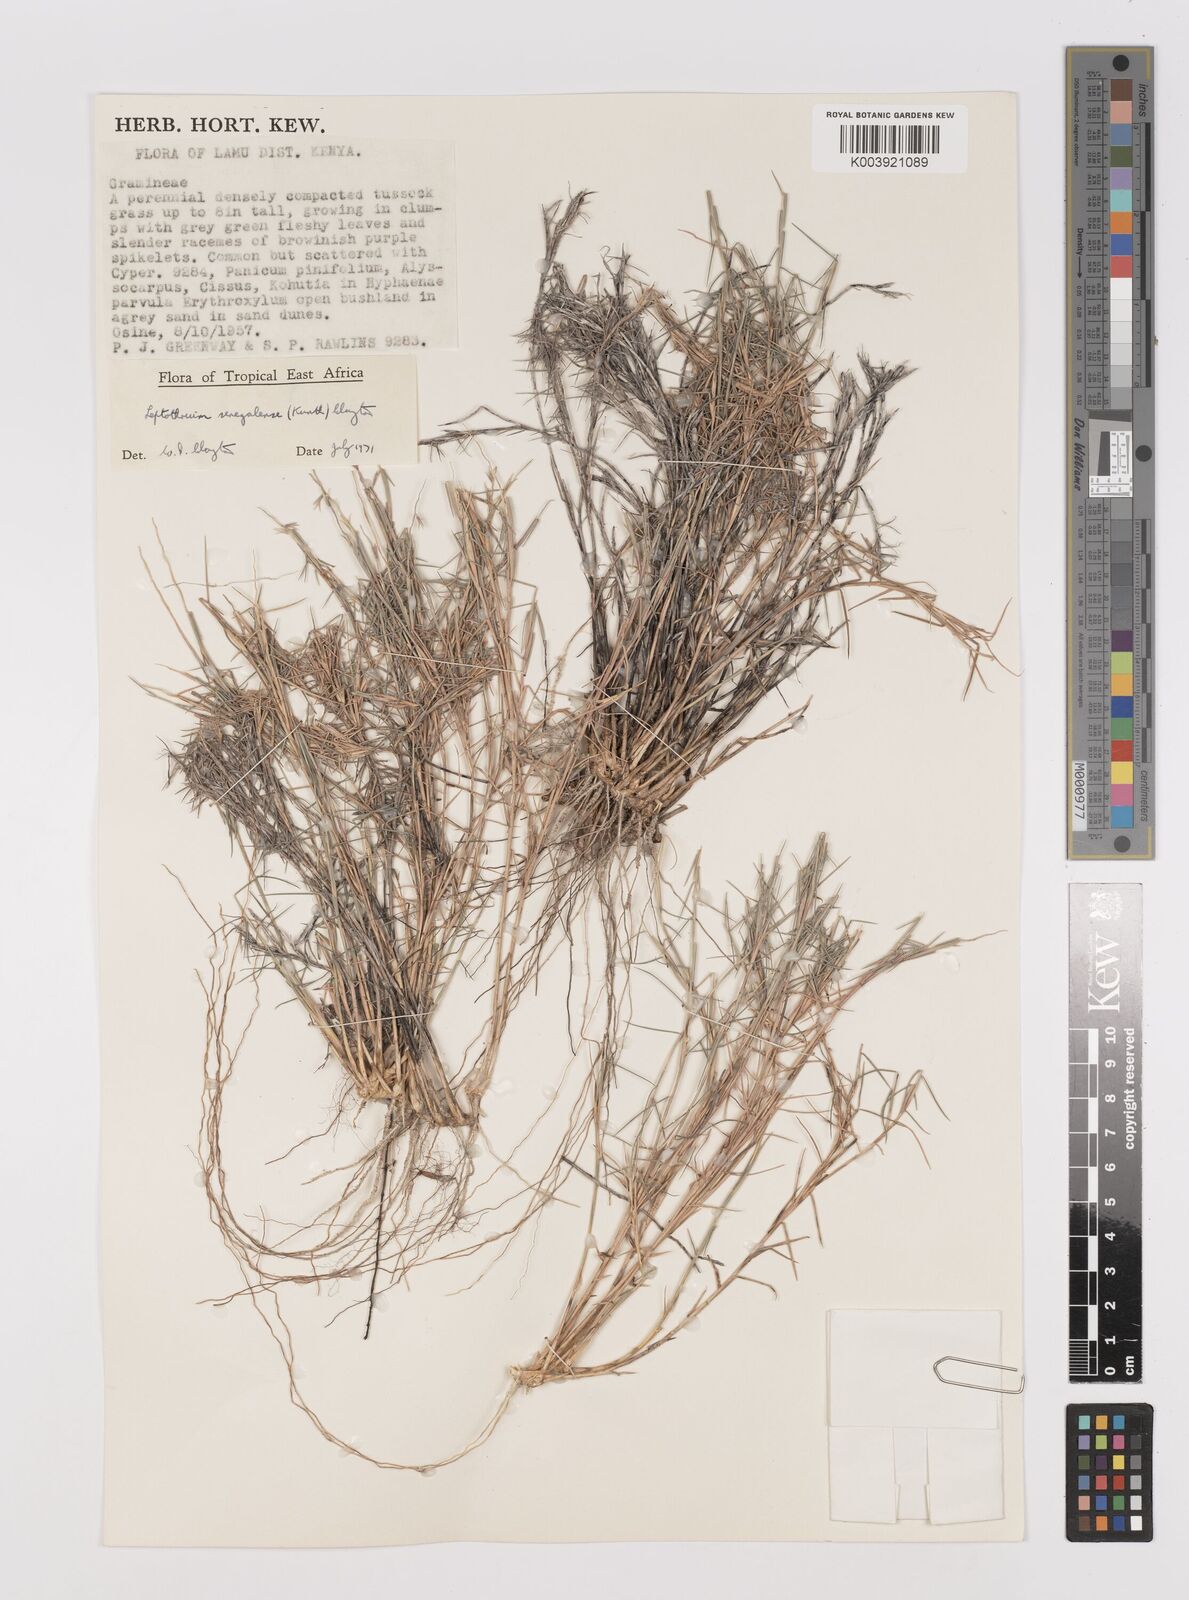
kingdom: Plantae
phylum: Tracheophyta
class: Liliopsida
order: Poales
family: Poaceae
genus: Leptothrium
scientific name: Leptothrium senegalense
